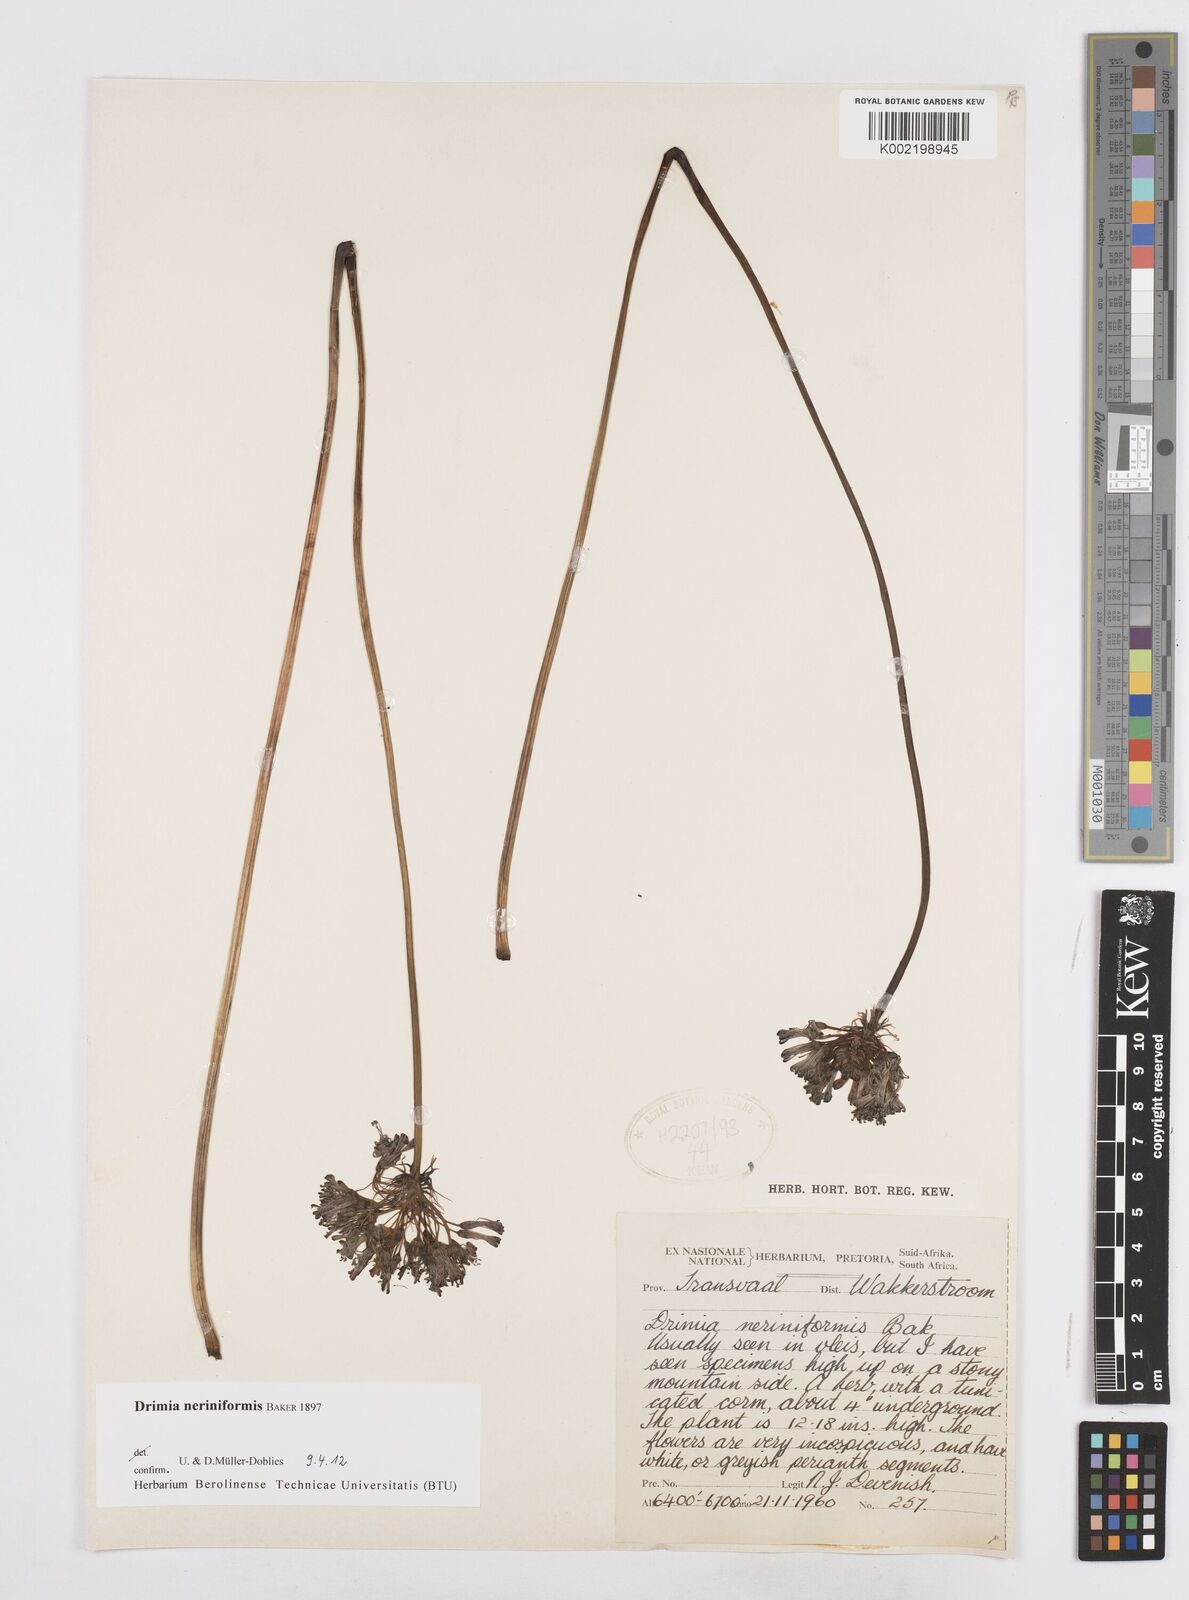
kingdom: Plantae
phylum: Tracheophyta
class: Liliopsida
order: Asparagales
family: Asparagaceae
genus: Drimia
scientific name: Drimia sphaerocephala
